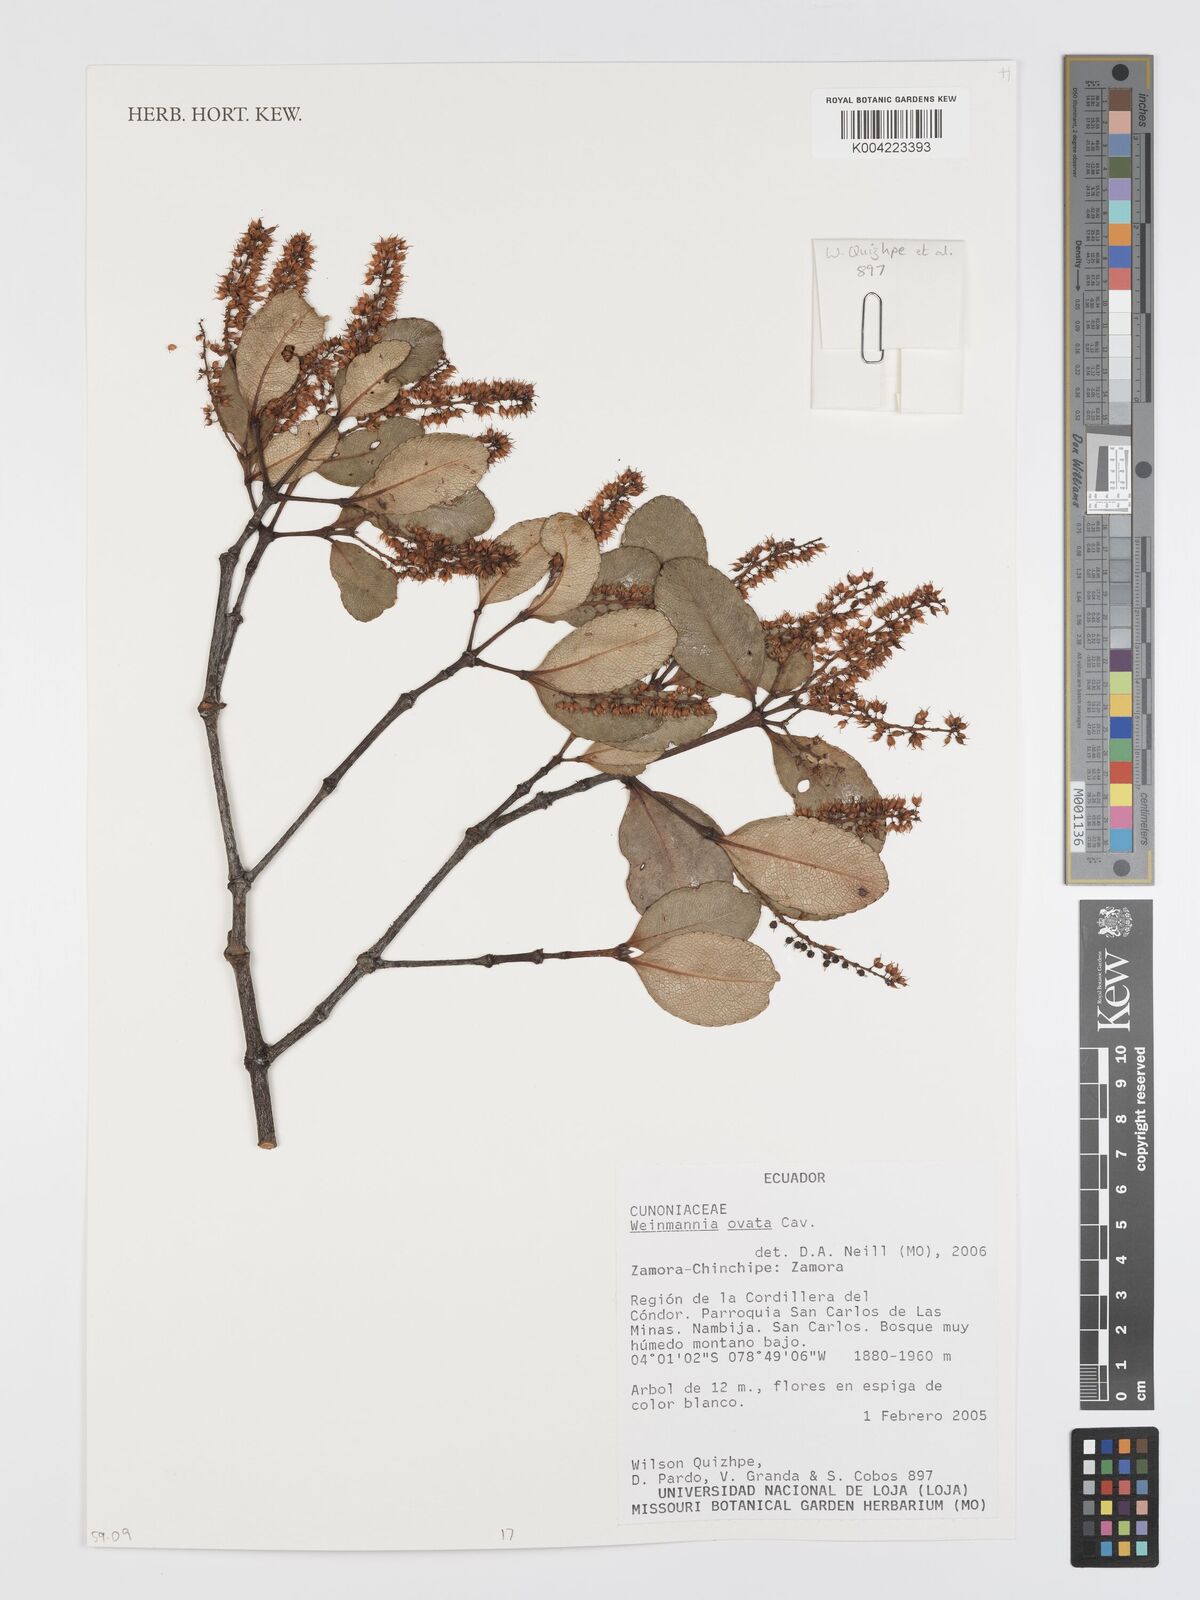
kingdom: Plantae
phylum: Tracheophyta
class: Magnoliopsida
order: Oxalidales
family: Cunoniaceae
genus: Weinmannia
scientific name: Weinmannia ovata
